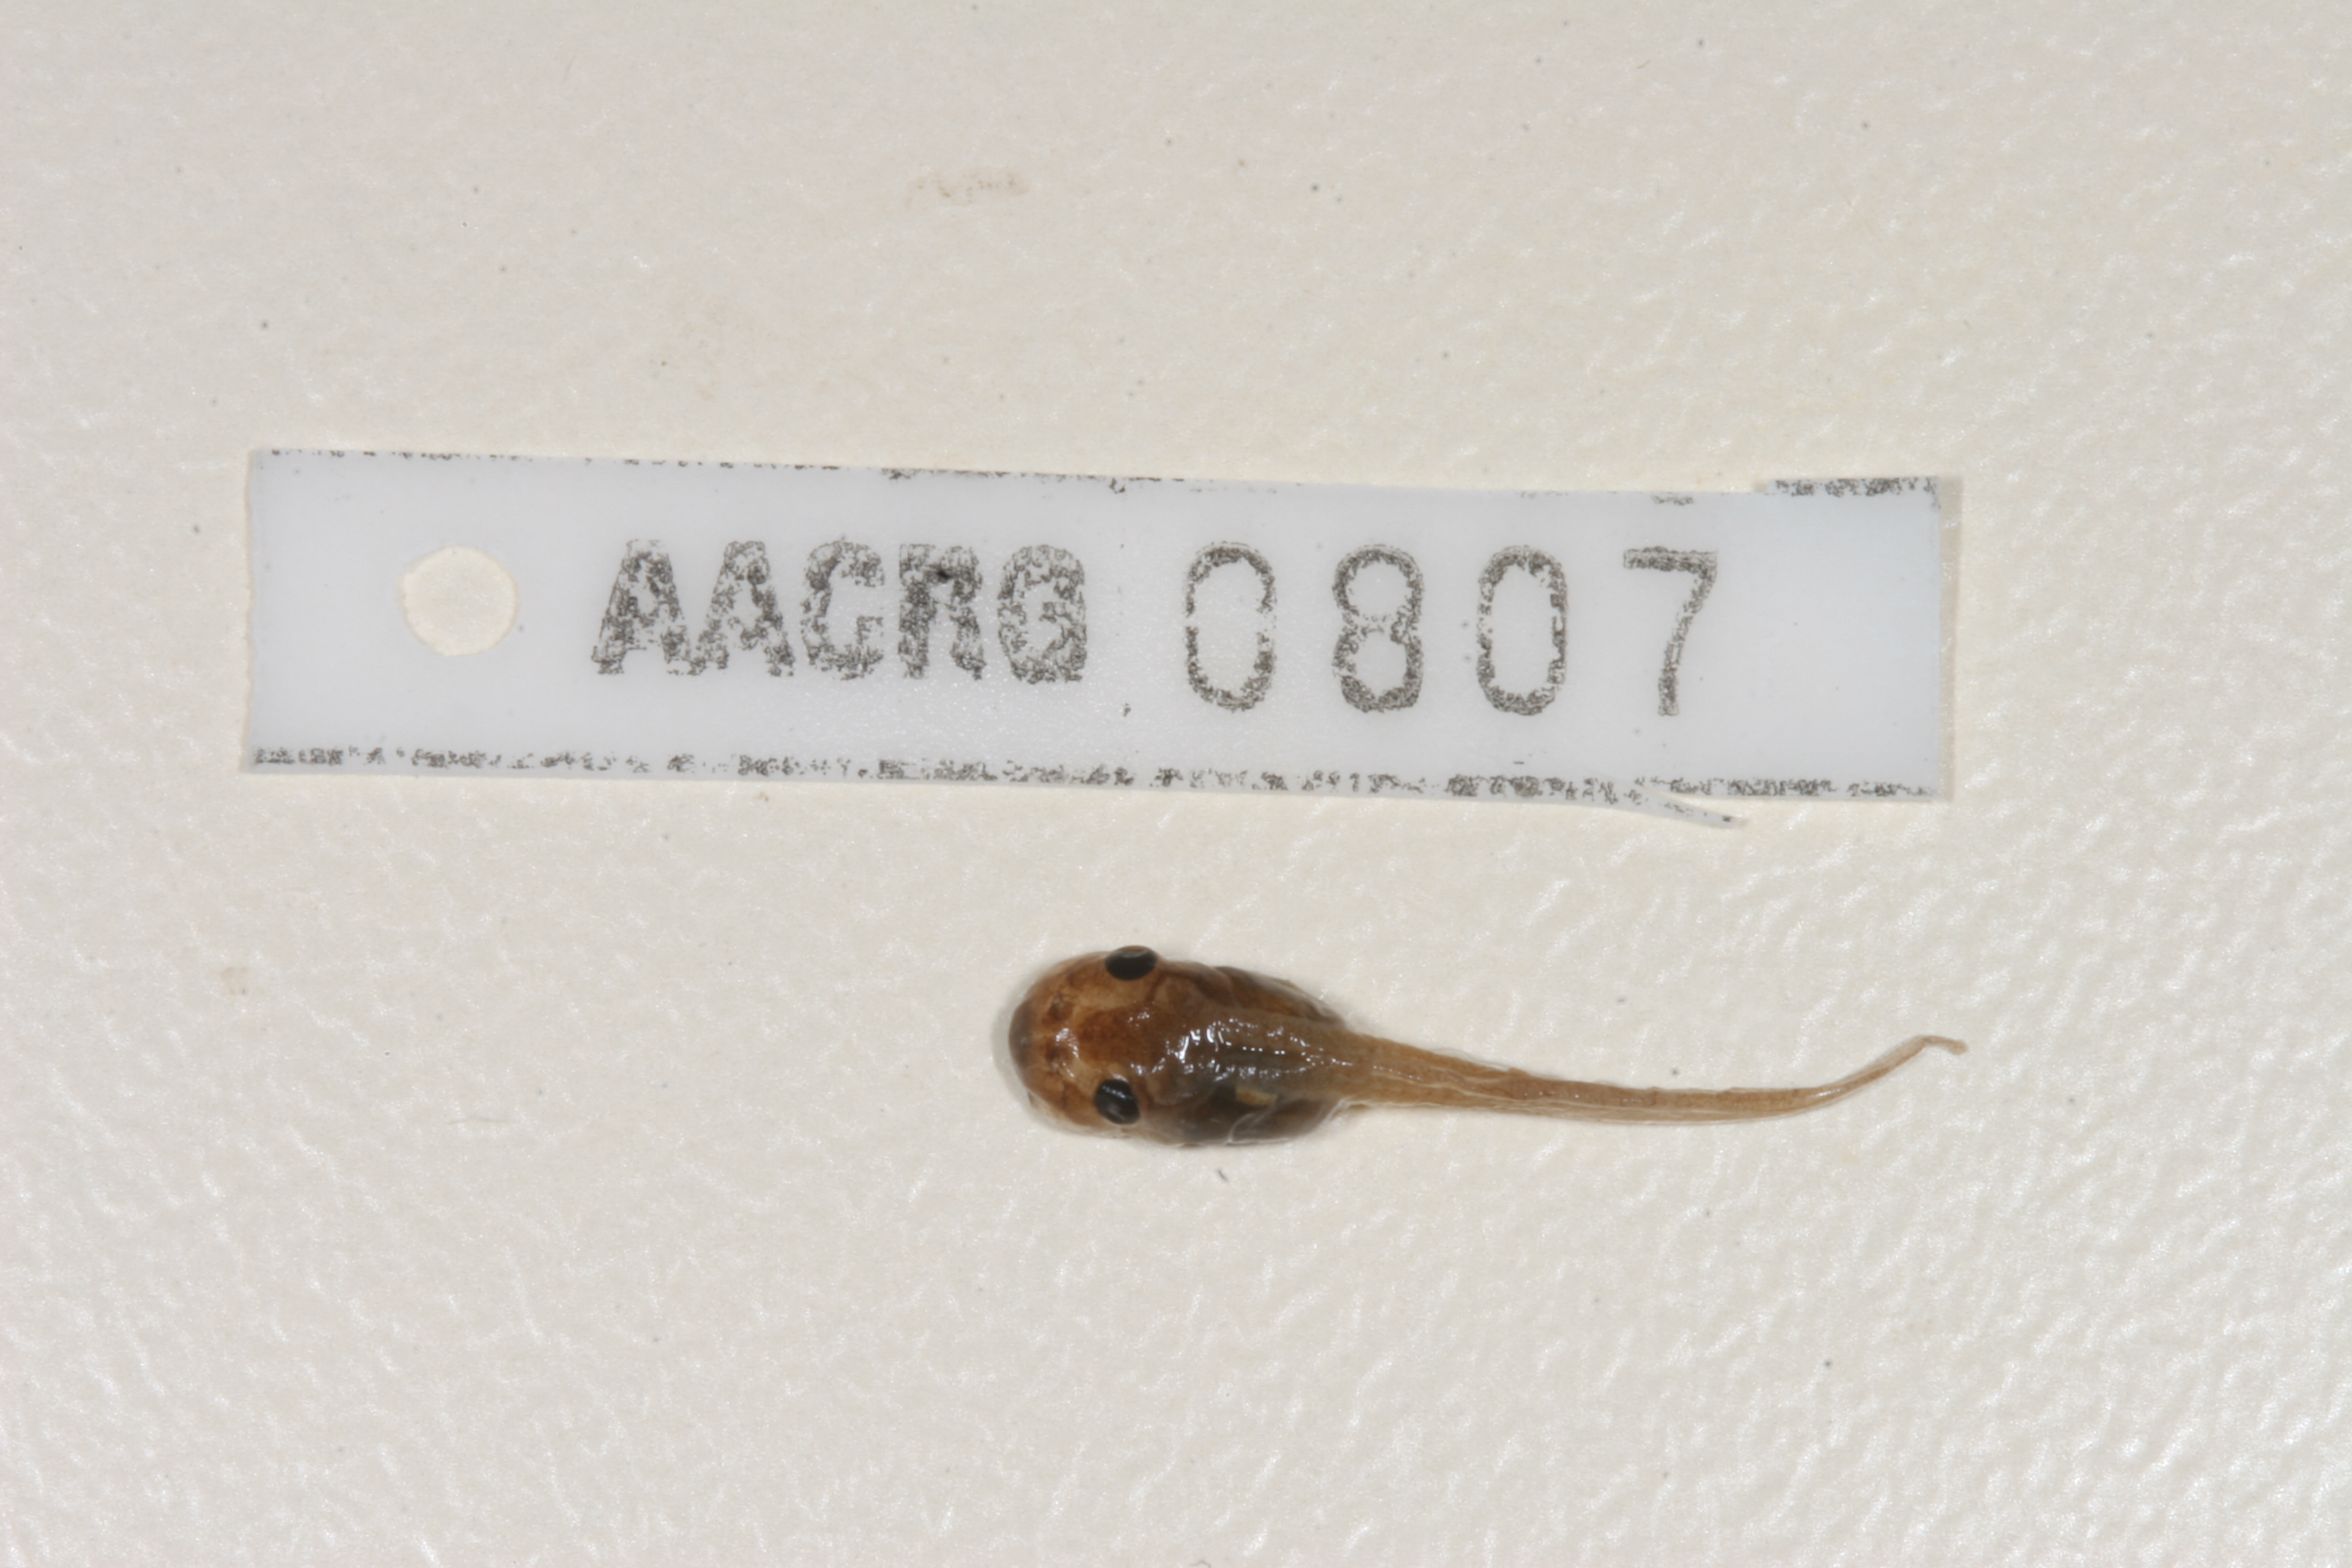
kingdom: Animalia
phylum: Chordata
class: Amphibia
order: Anura
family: Pyxicephalidae
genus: Cacosternum
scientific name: Cacosternum platys
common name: Smooth dainty frog
